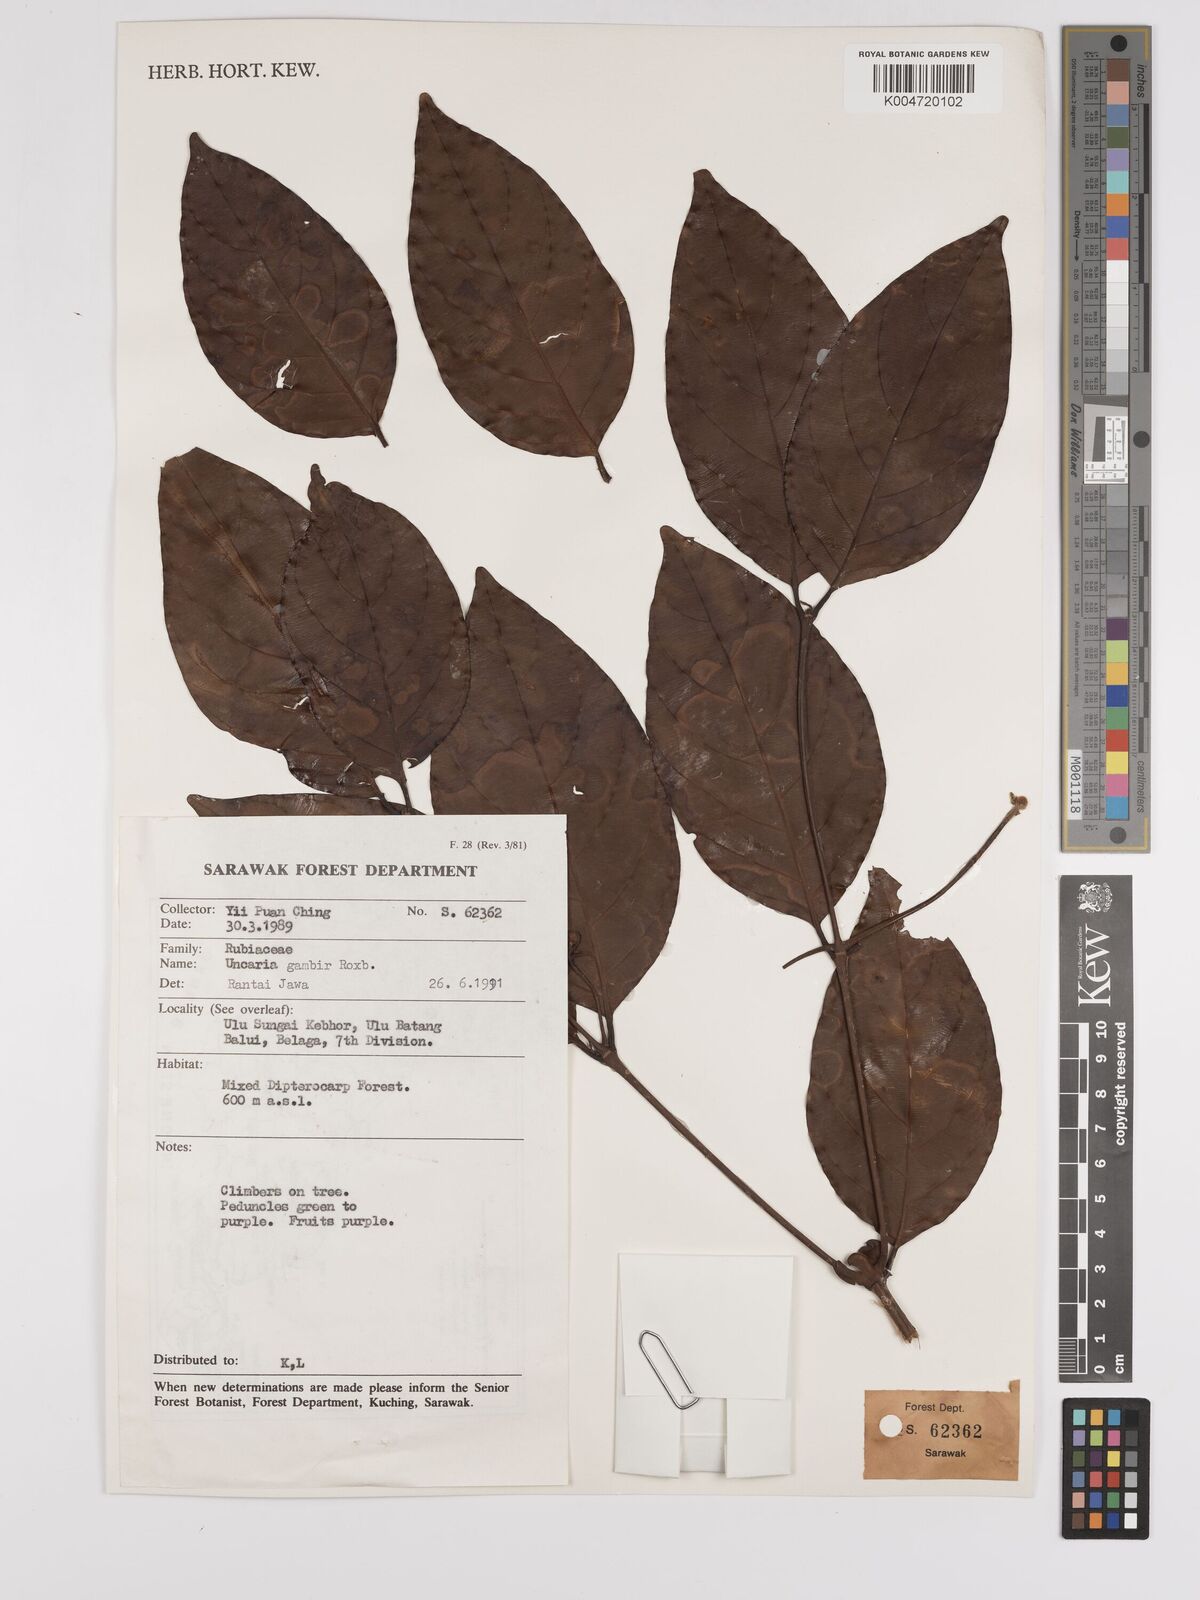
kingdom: Plantae
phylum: Tracheophyta
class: Magnoliopsida
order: Gentianales
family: Rubiaceae
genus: Uncaria
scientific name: Uncaria
